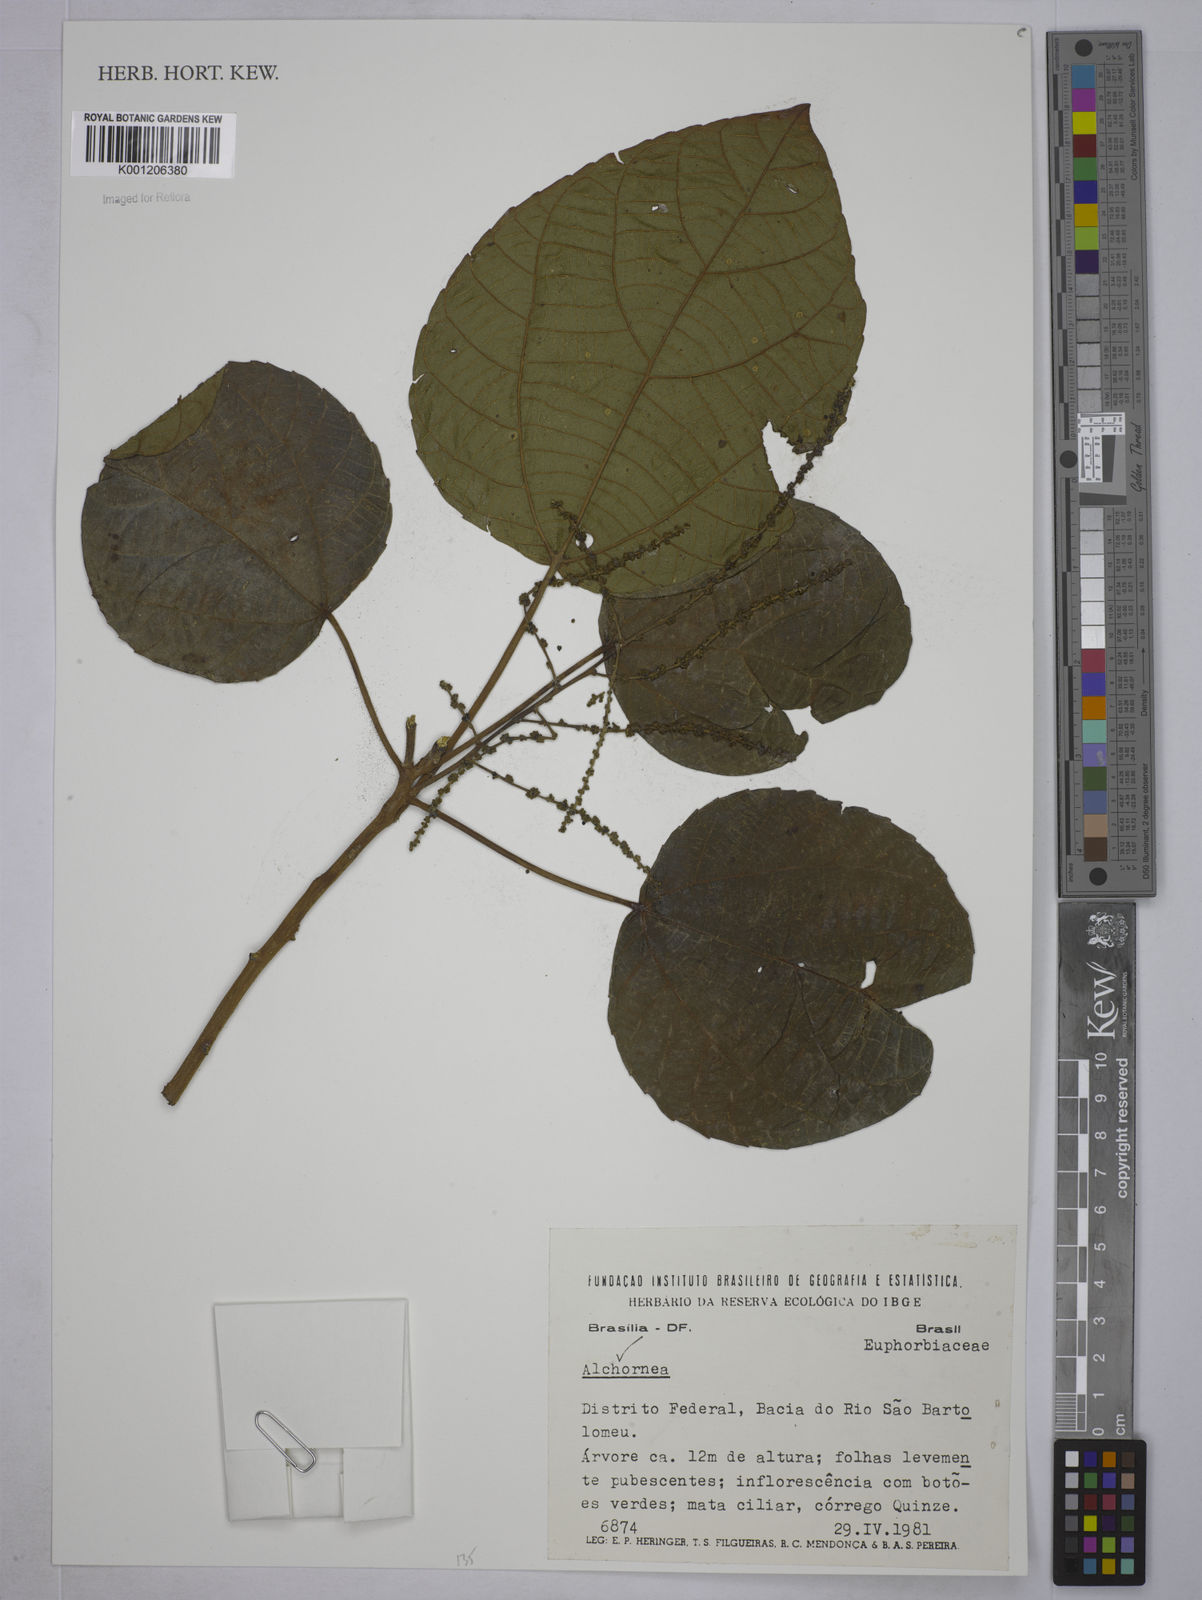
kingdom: Plantae
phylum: Tracheophyta
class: Magnoliopsida
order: Malpighiales
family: Euphorbiaceae
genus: Alchornea
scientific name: Alchornea
